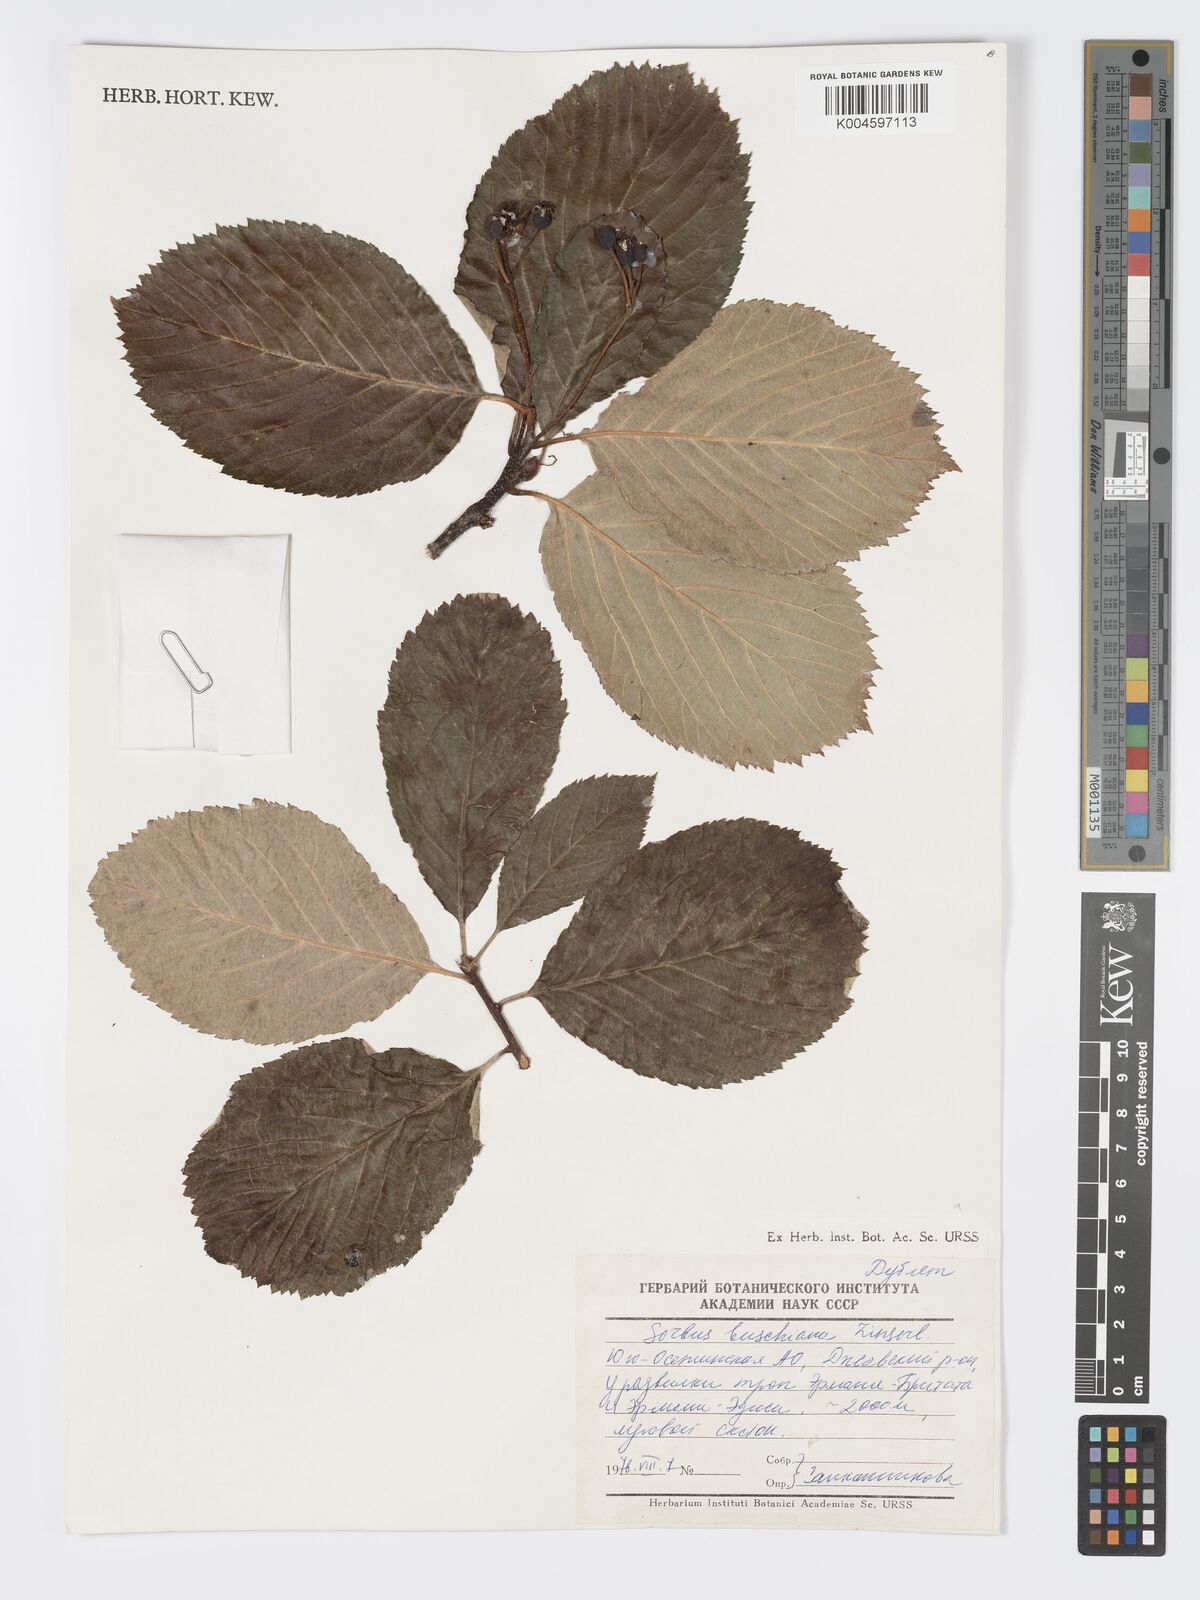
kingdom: Plantae
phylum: Tracheophyta
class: Magnoliopsida
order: Rosales
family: Rosaceae
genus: Sorbus
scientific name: Sorbus subfusca
